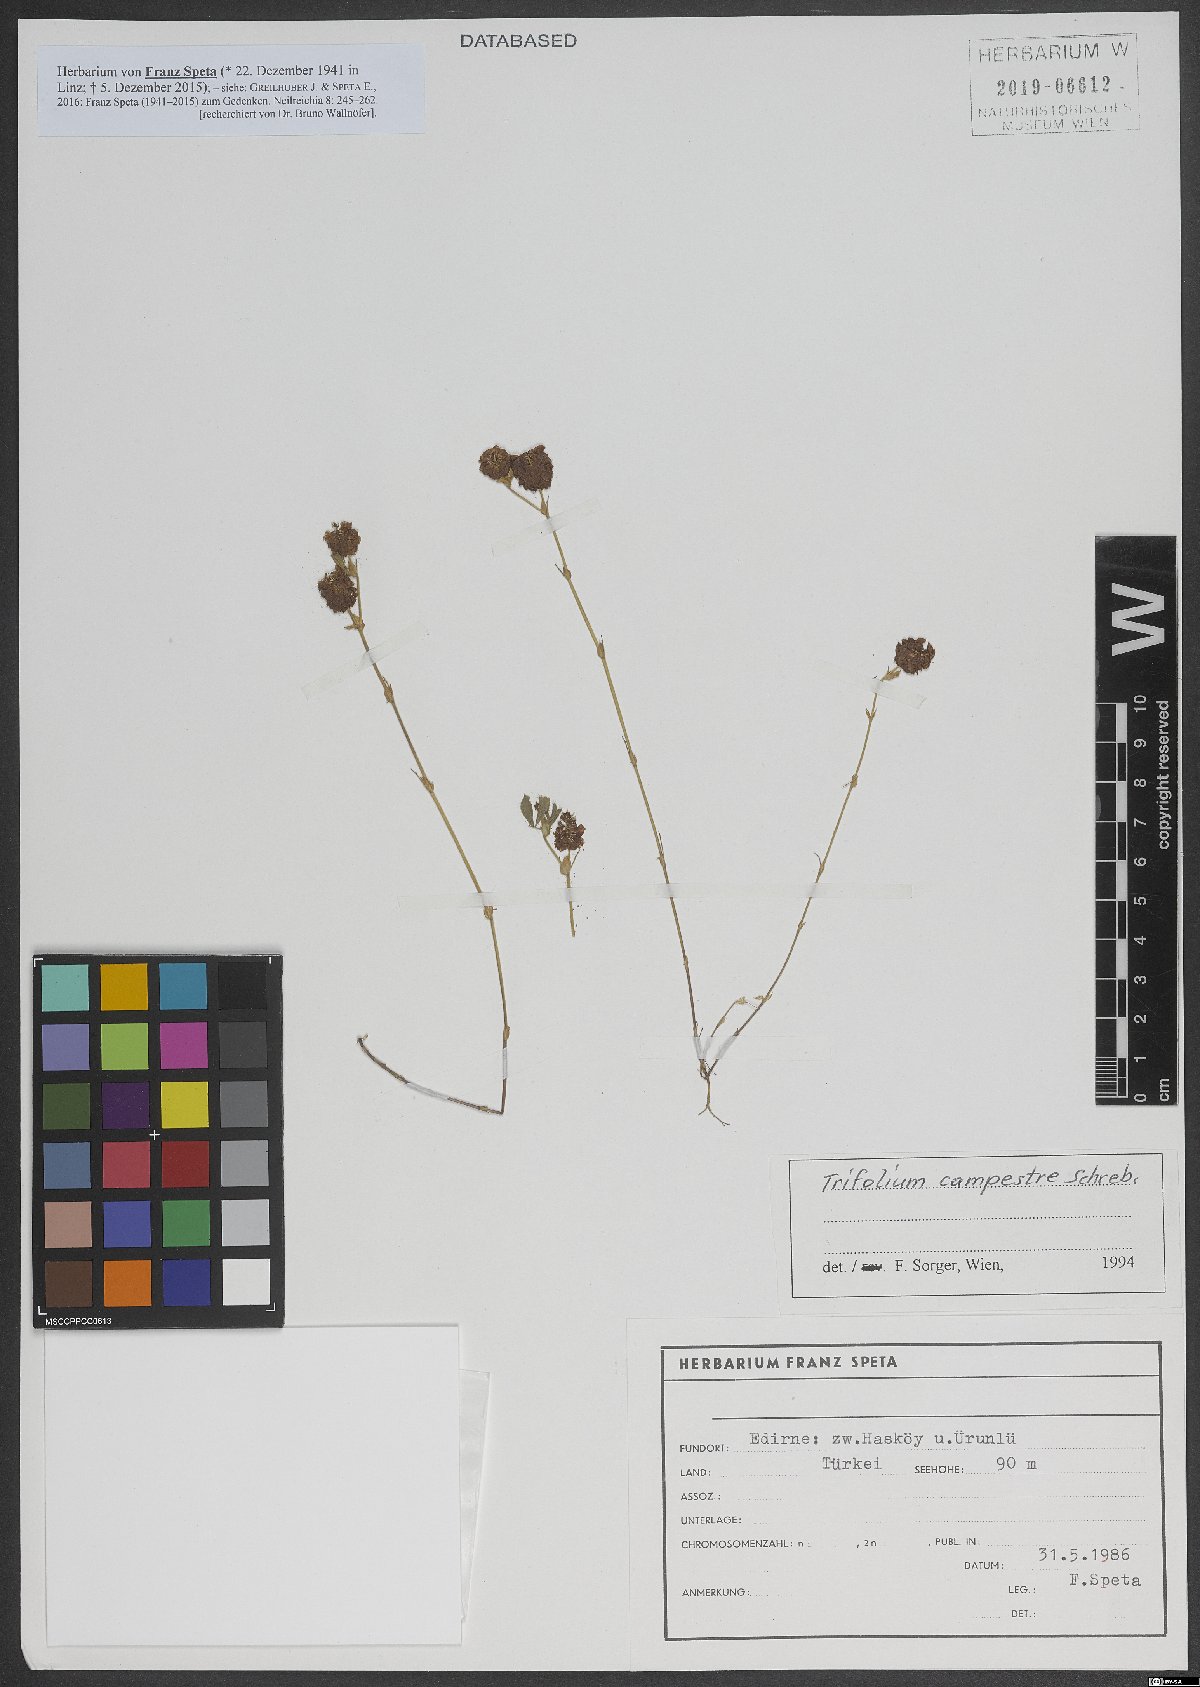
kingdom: Plantae
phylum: Tracheophyta
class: Magnoliopsida
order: Fabales
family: Fabaceae
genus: Trifolium
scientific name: Trifolium campestre
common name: Field clover
